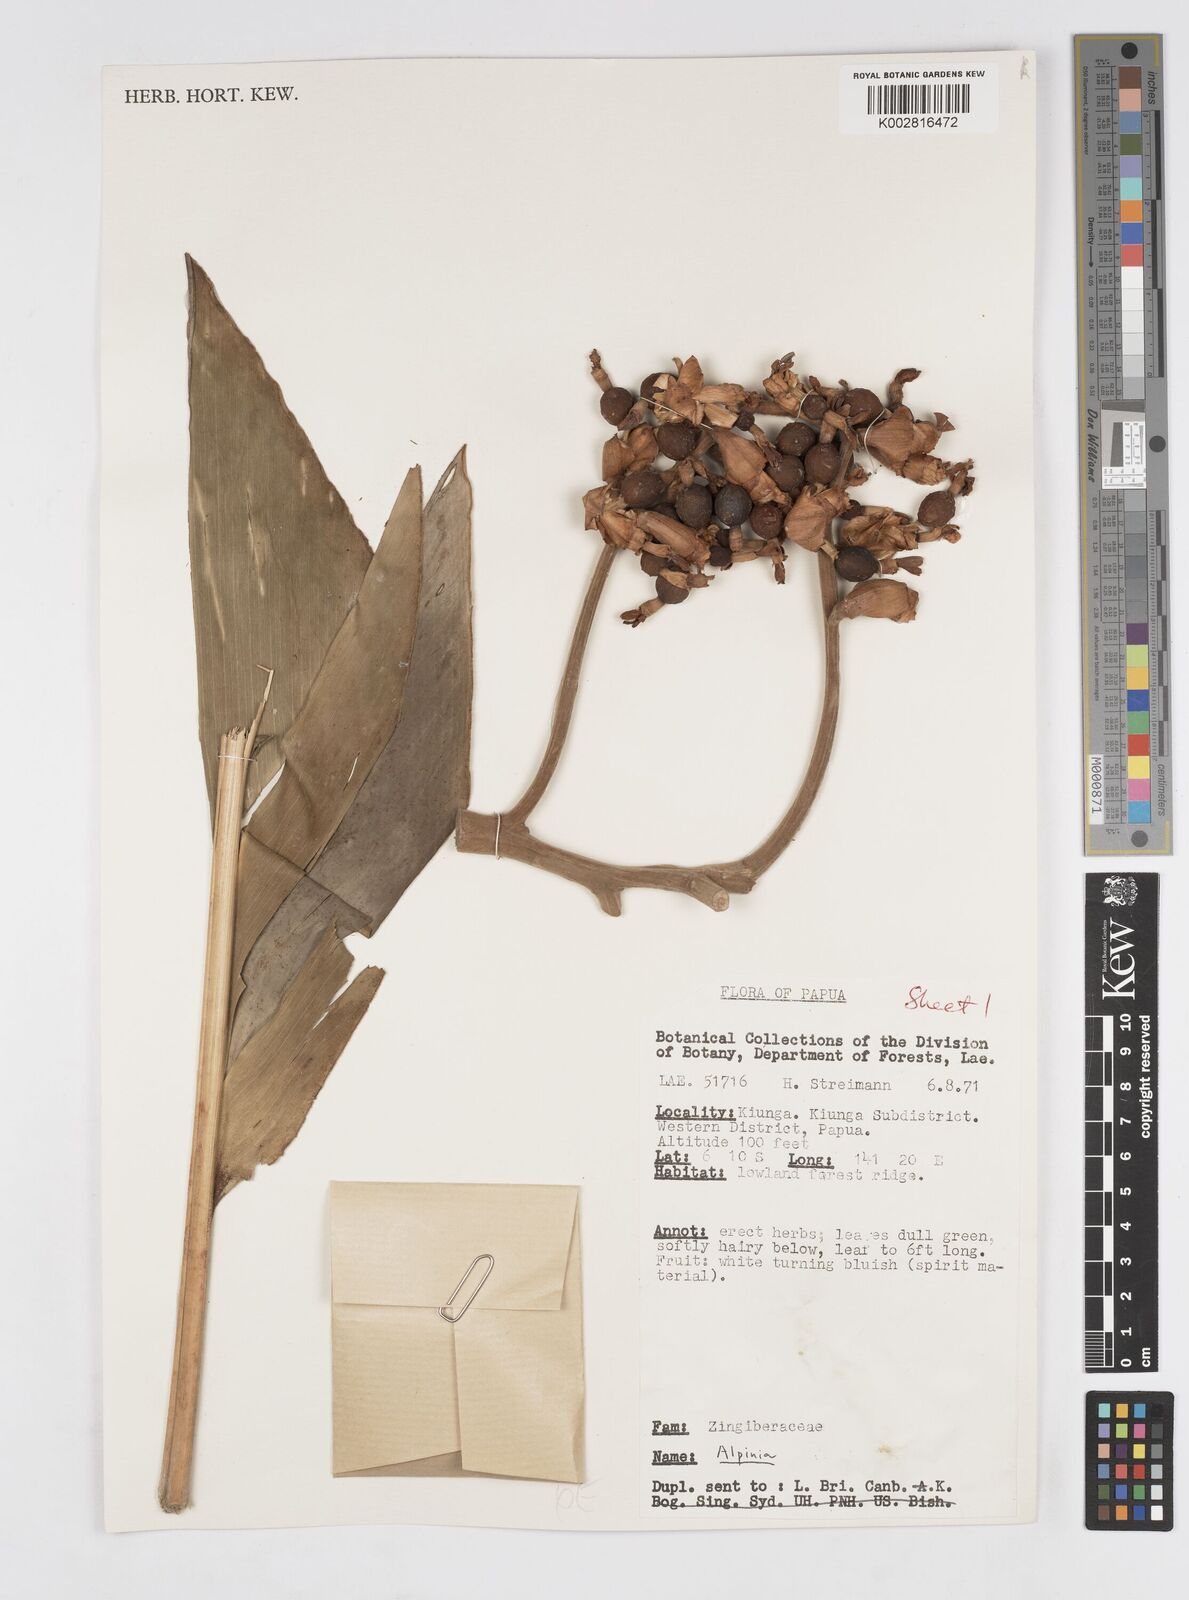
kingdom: Plantae
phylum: Tracheophyta
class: Liliopsida
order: Zingiberales
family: Zingiberaceae
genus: Alpinia
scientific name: Alpinia
